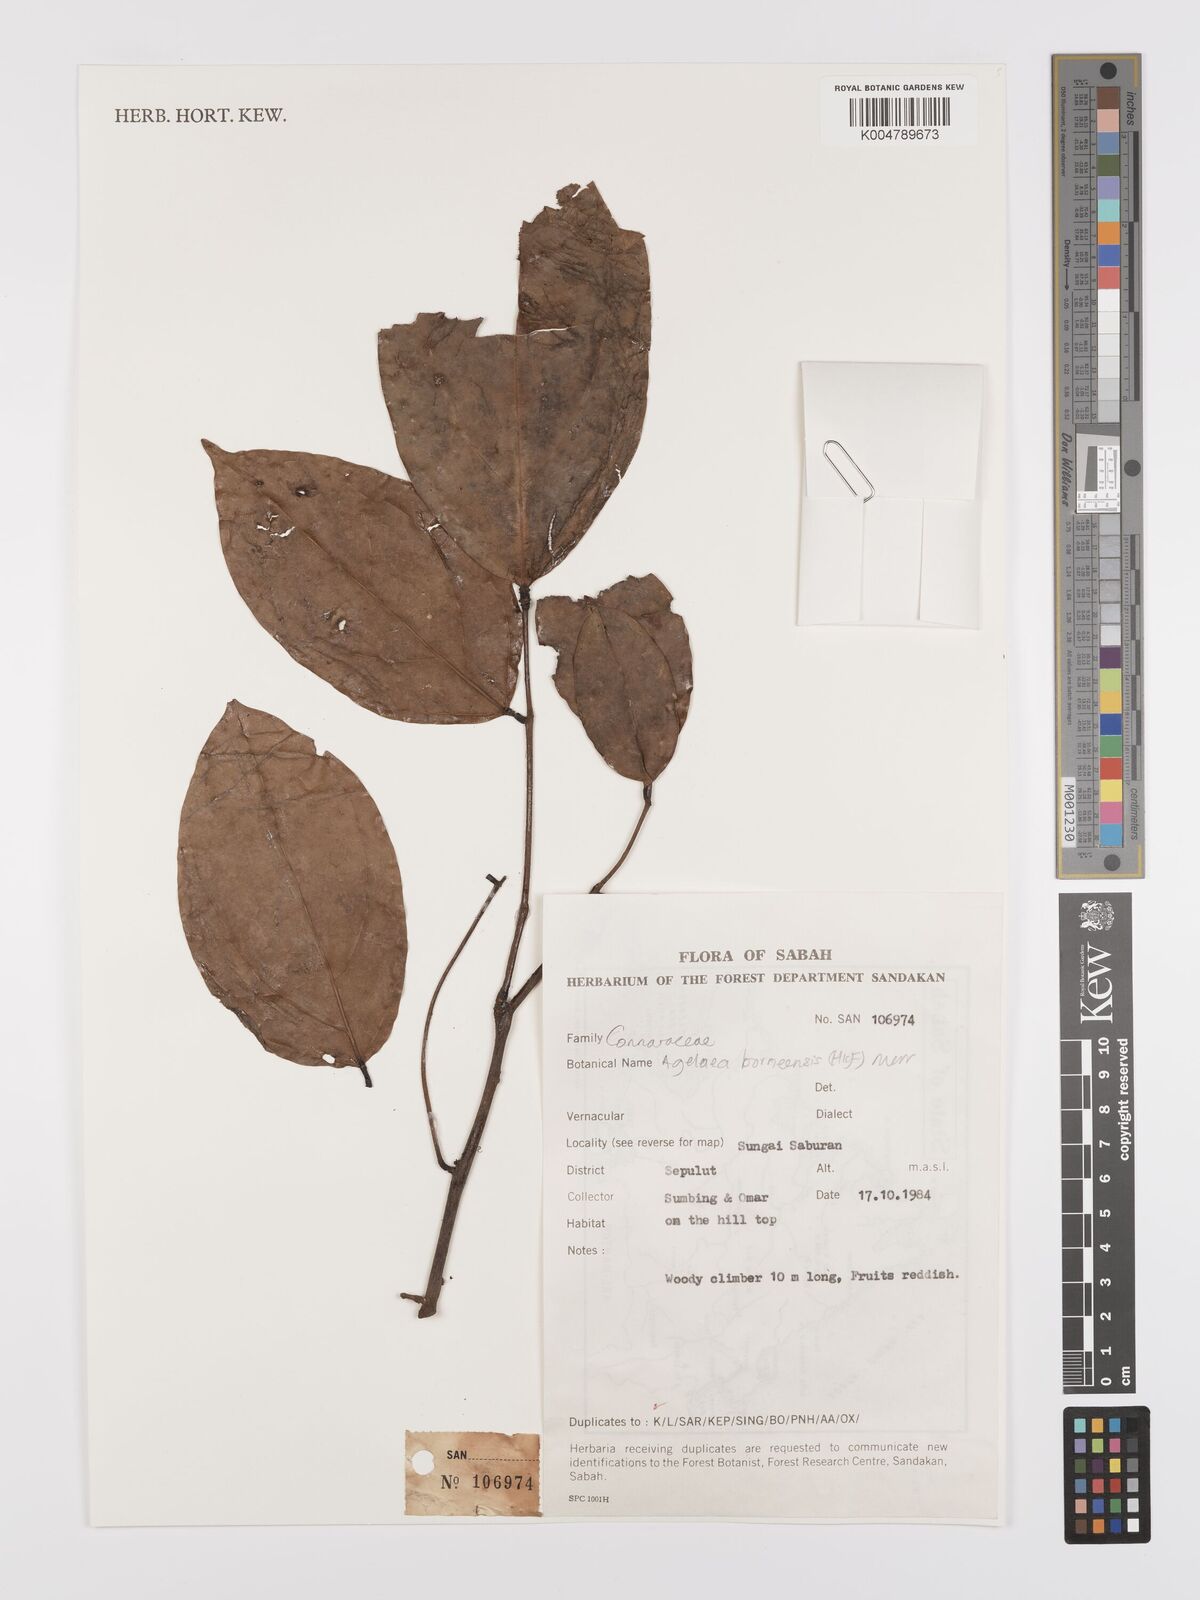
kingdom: Plantae
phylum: Tracheophyta
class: Magnoliopsida
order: Oxalidales
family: Connaraceae
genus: Agelaea
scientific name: Agelaea borneensis
